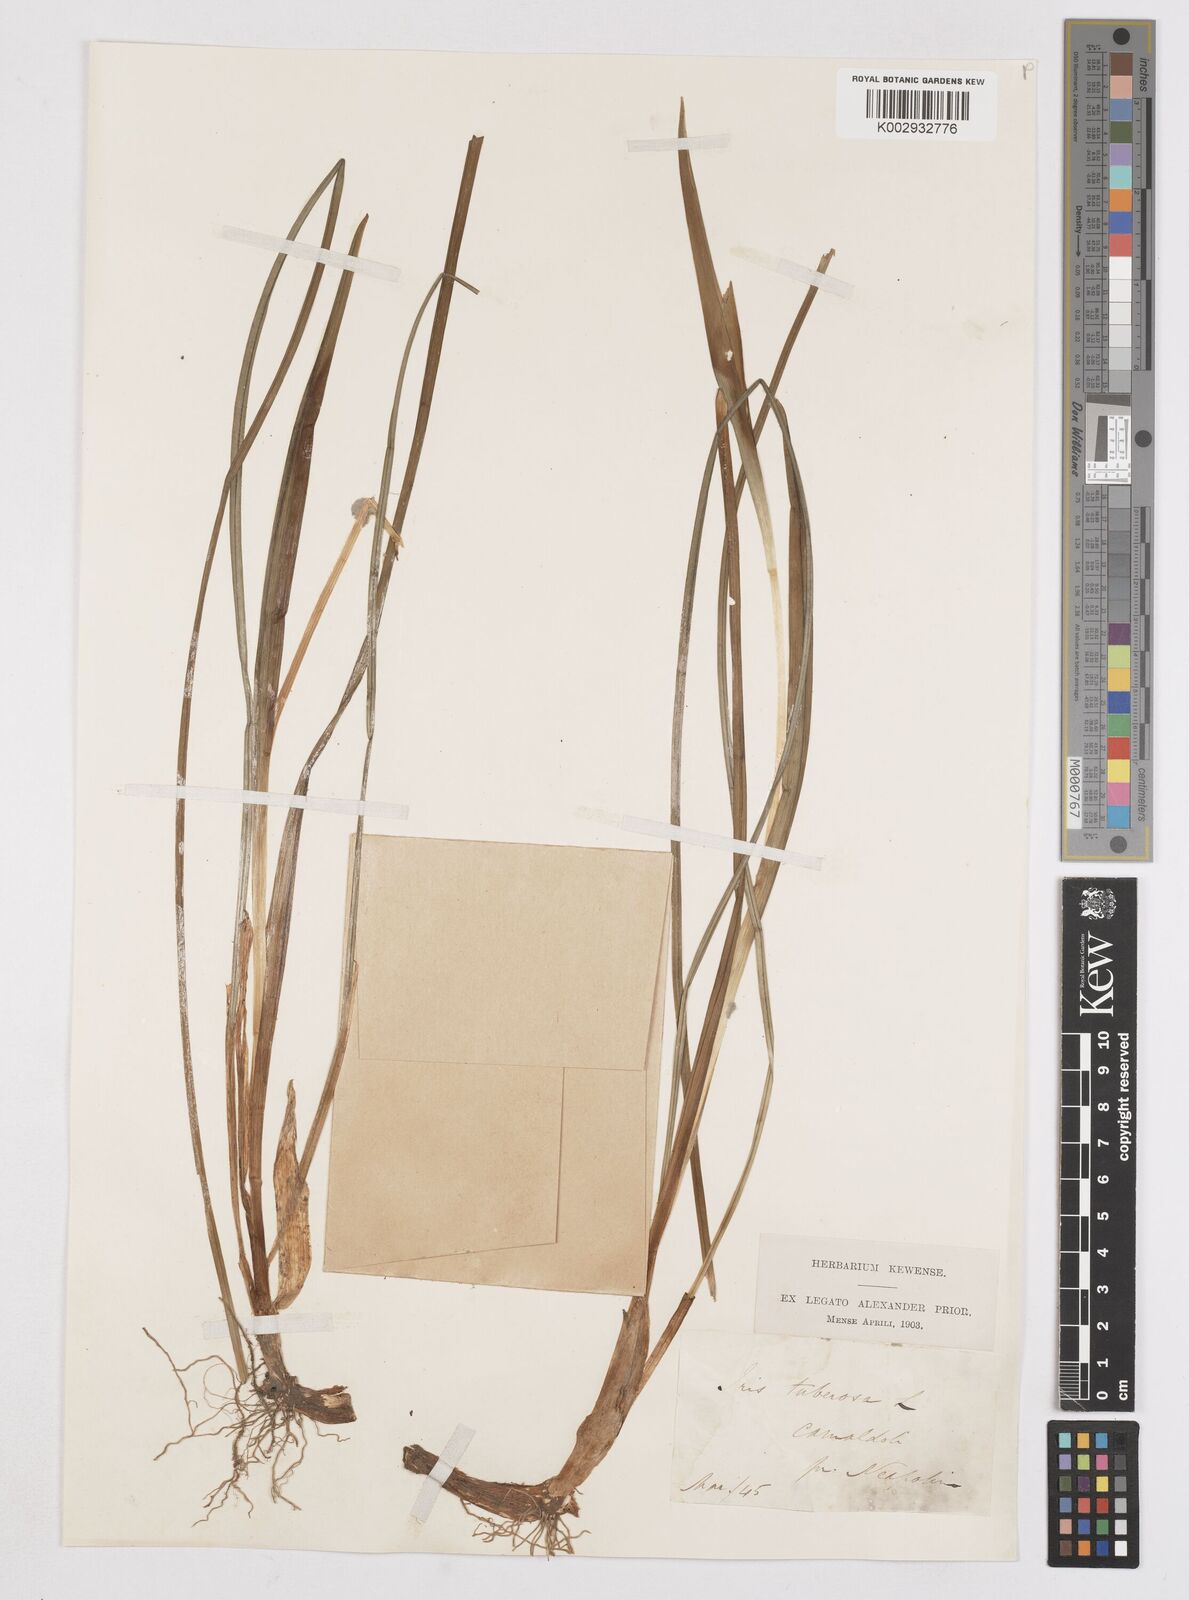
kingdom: Plantae
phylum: Tracheophyta
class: Liliopsida
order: Asparagales
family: Iridaceae
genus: Iris
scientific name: Iris tuberosa
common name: Snake's-head iris
